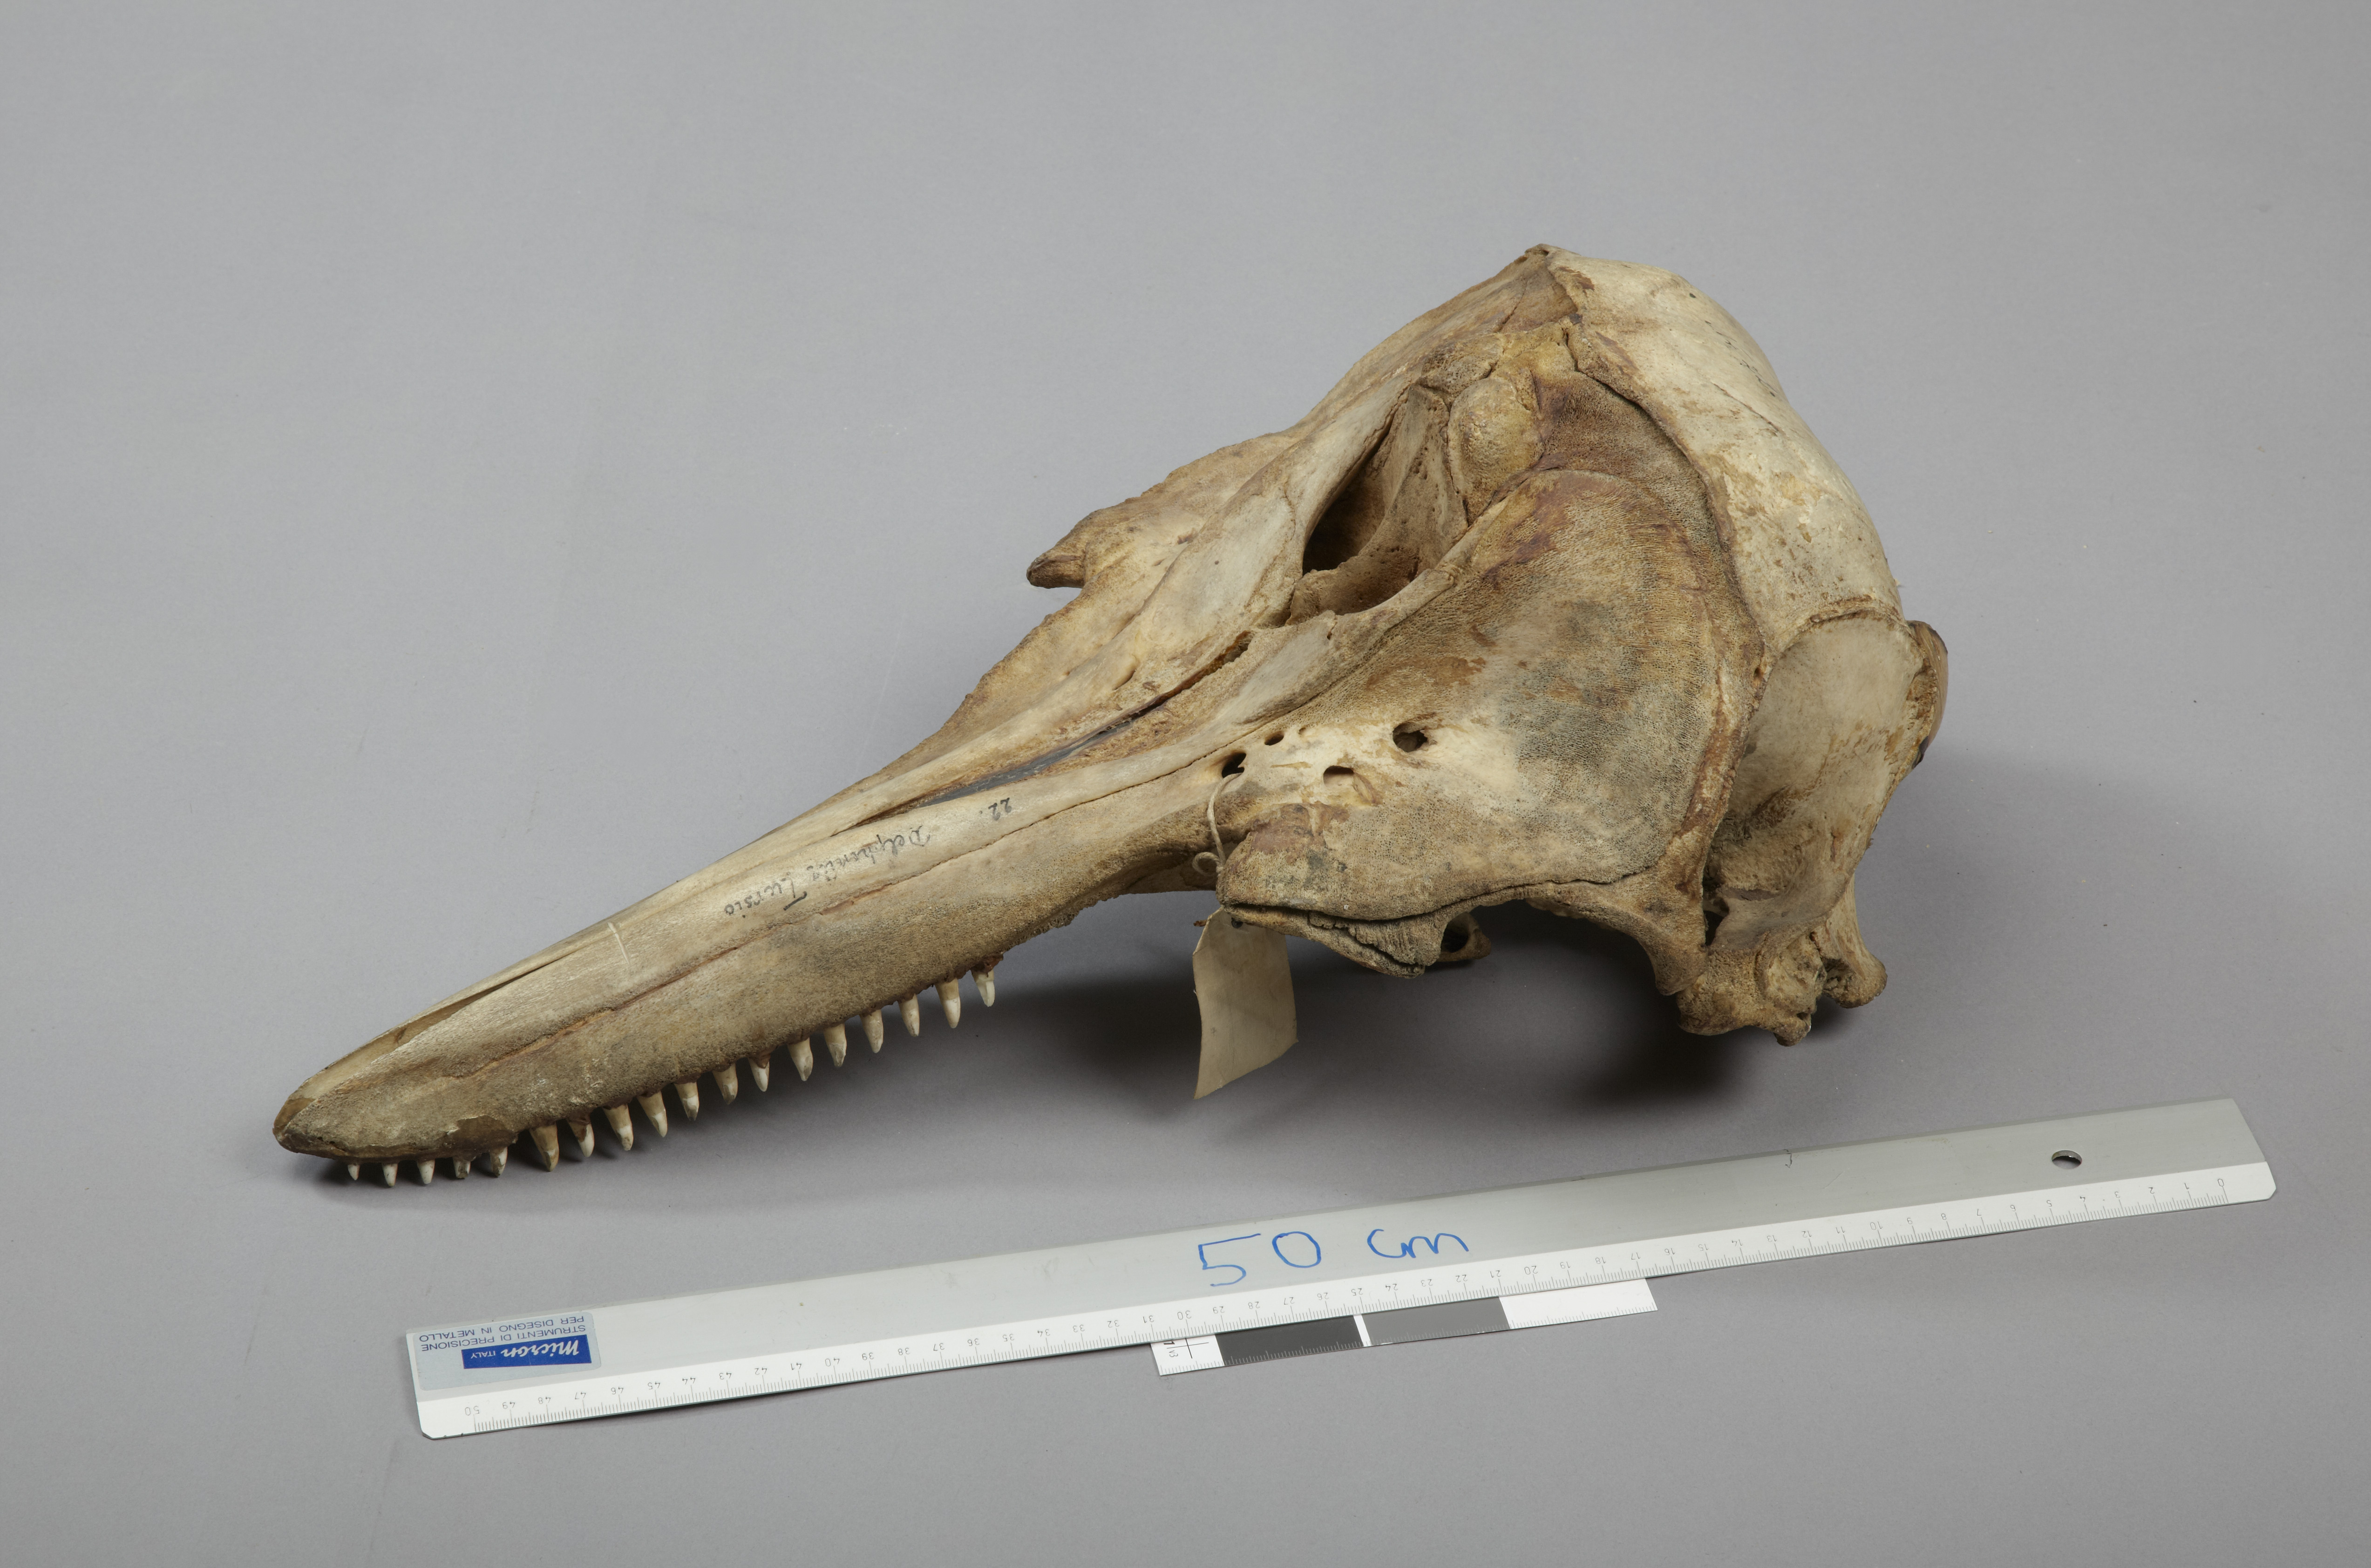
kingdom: Animalia
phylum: Chordata
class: Mammalia
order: Cetacea
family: Delphinidae
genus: Lagenorhynchus
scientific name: Lagenorhynchus albirostris
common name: White-beaked dolphin
